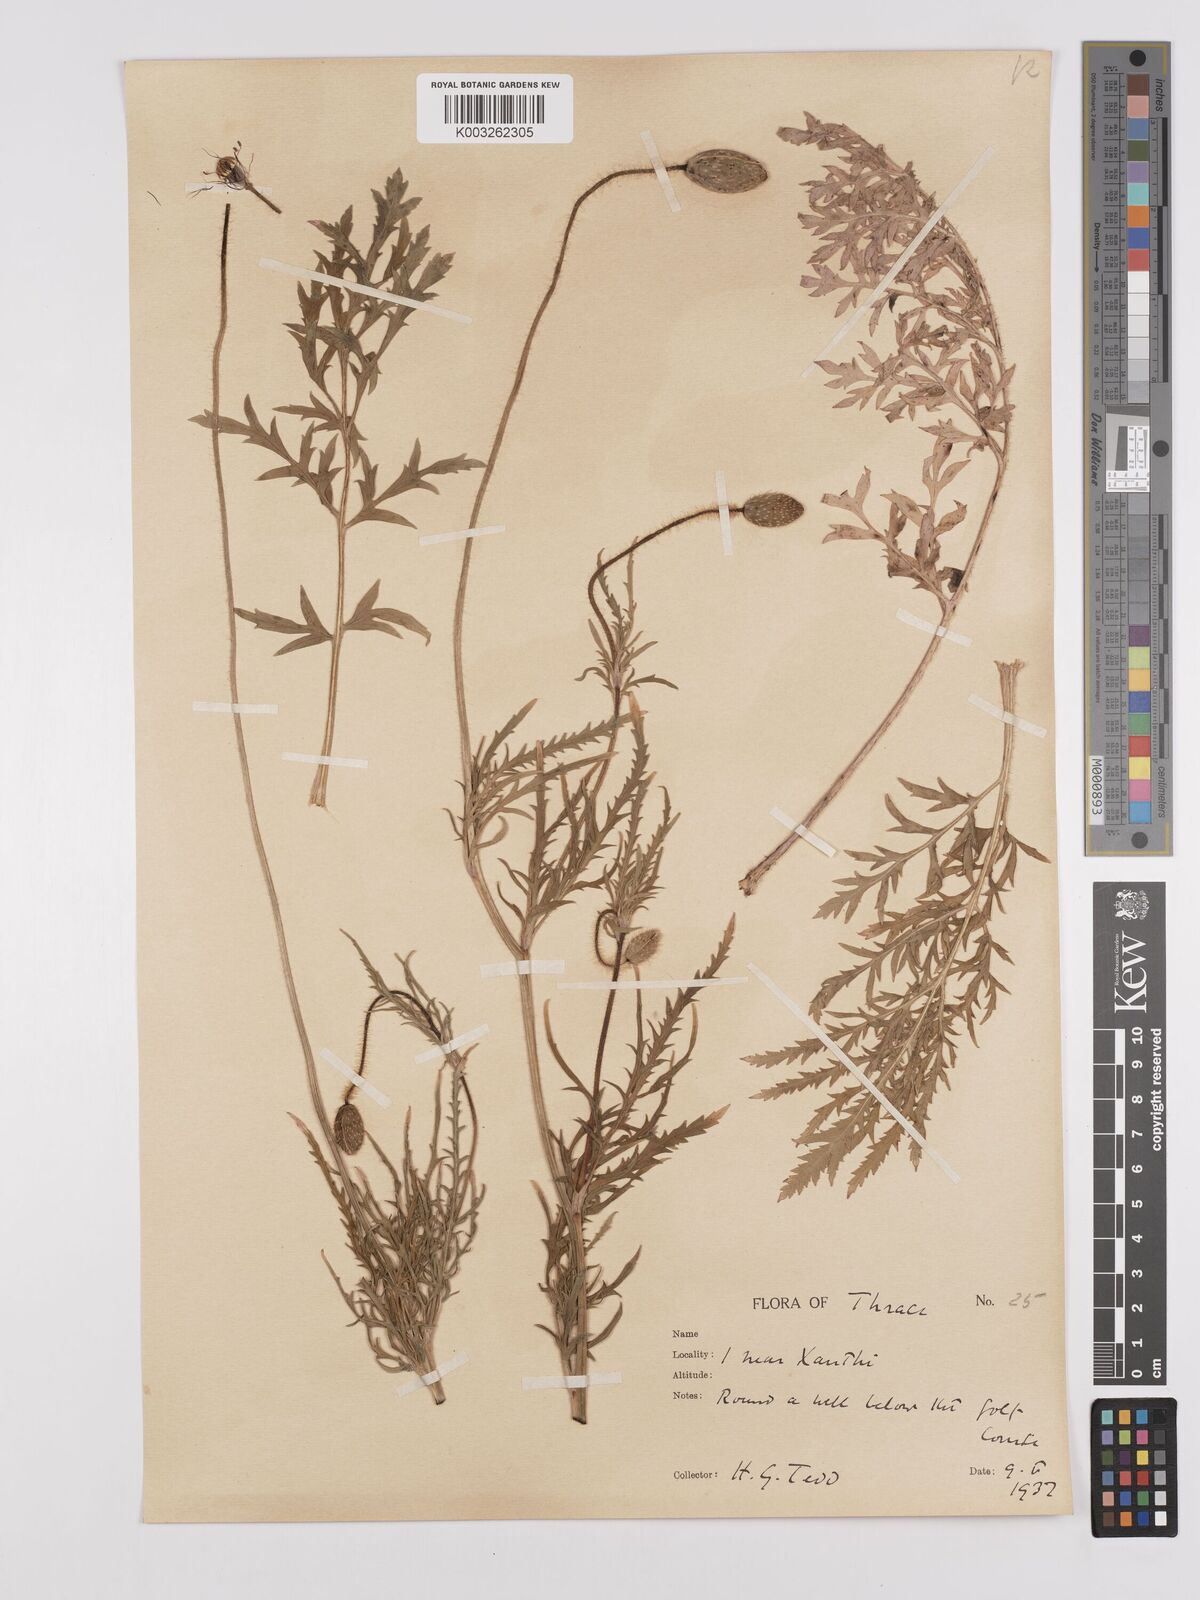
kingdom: Plantae
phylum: Tracheophyta
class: Magnoliopsida
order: Ranunculales
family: Papaveraceae
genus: Papaver
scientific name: Papaver rhoeas
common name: Corn poppy
